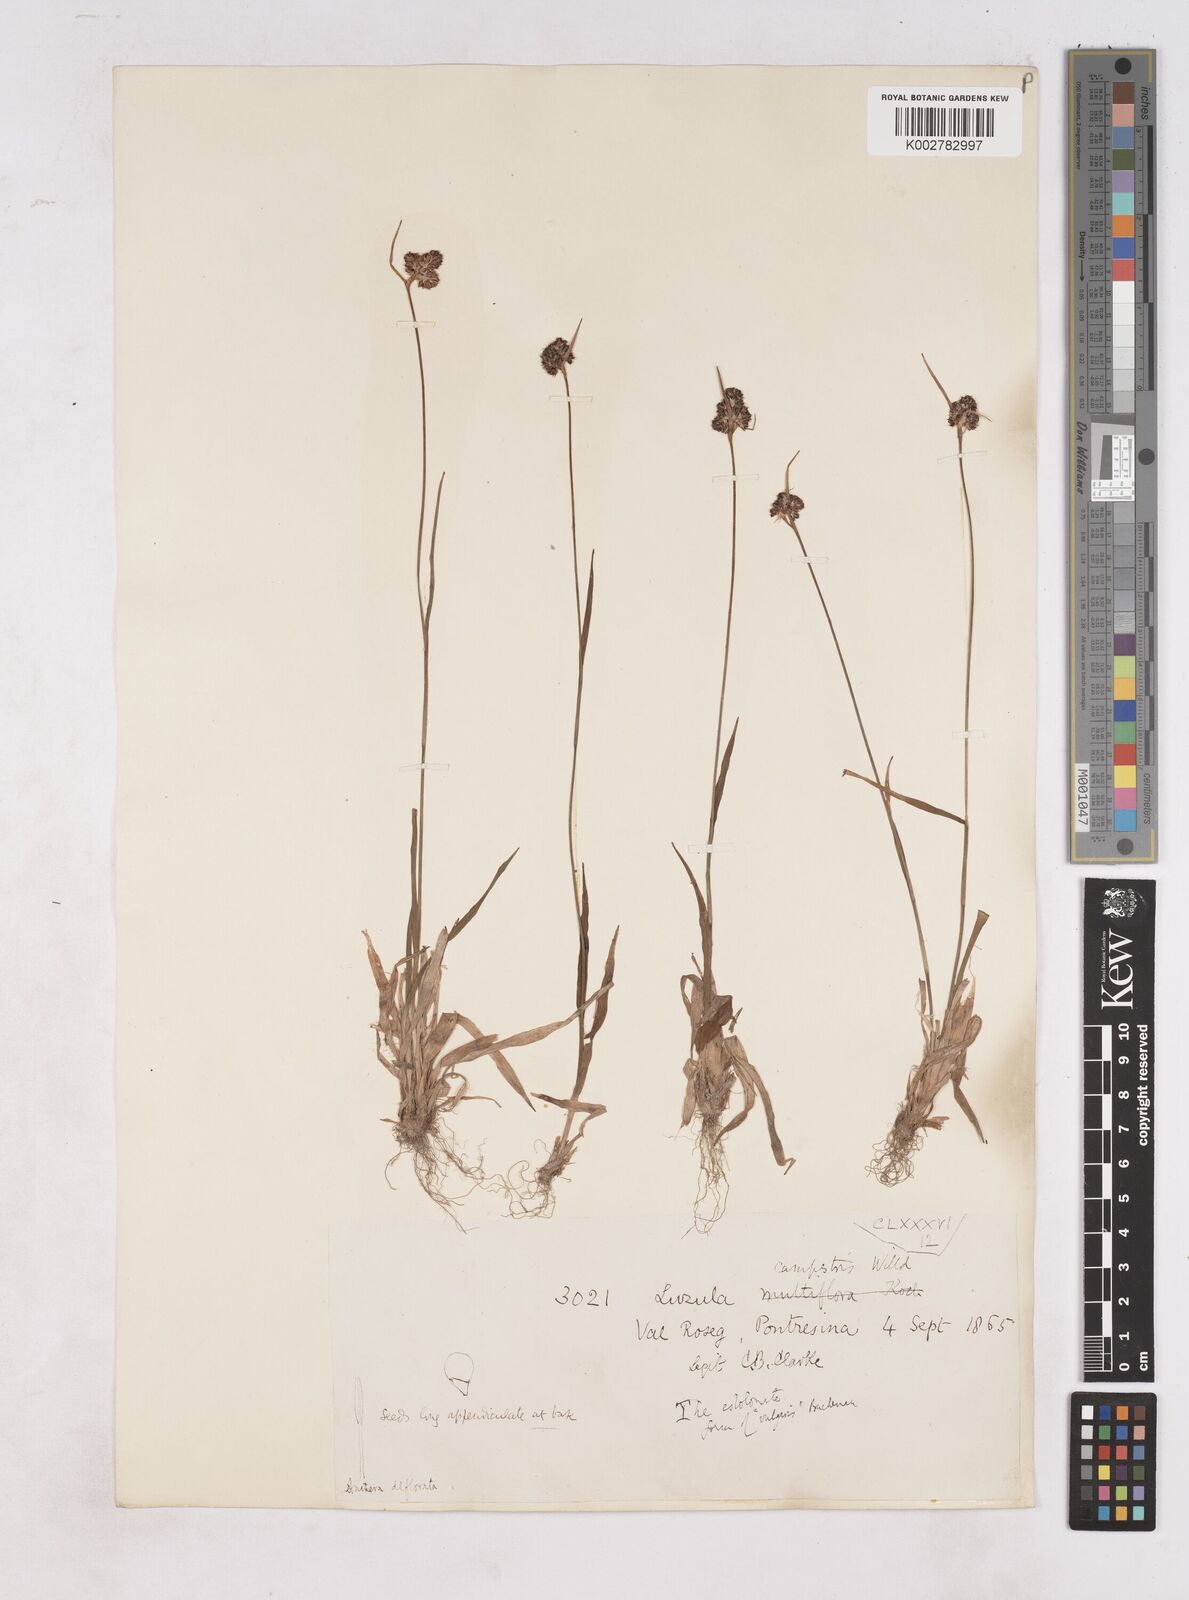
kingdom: Plantae
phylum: Tracheophyta
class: Liliopsida
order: Poales
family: Juncaceae
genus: Luzula
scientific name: Luzula campestris
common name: Field wood-rush
